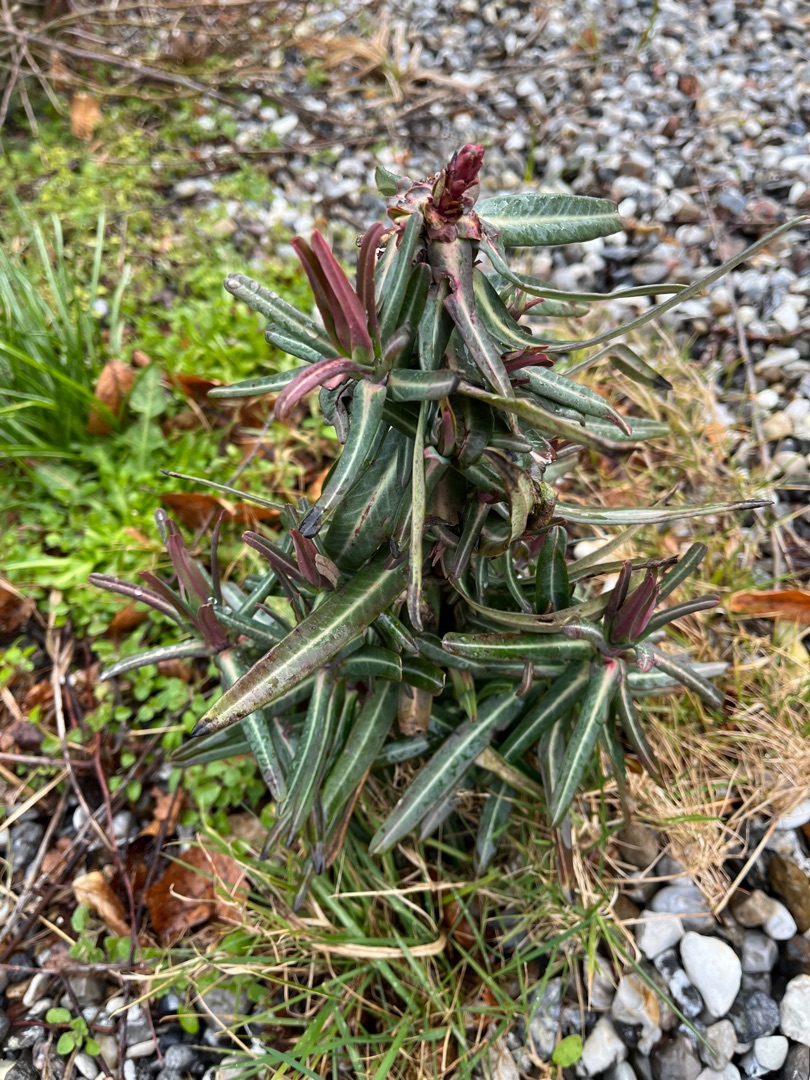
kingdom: Plantae
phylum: Tracheophyta
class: Magnoliopsida
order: Malpighiales
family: Euphorbiaceae
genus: Euphorbia
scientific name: Euphorbia lathyris
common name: Kors-vortemælk
